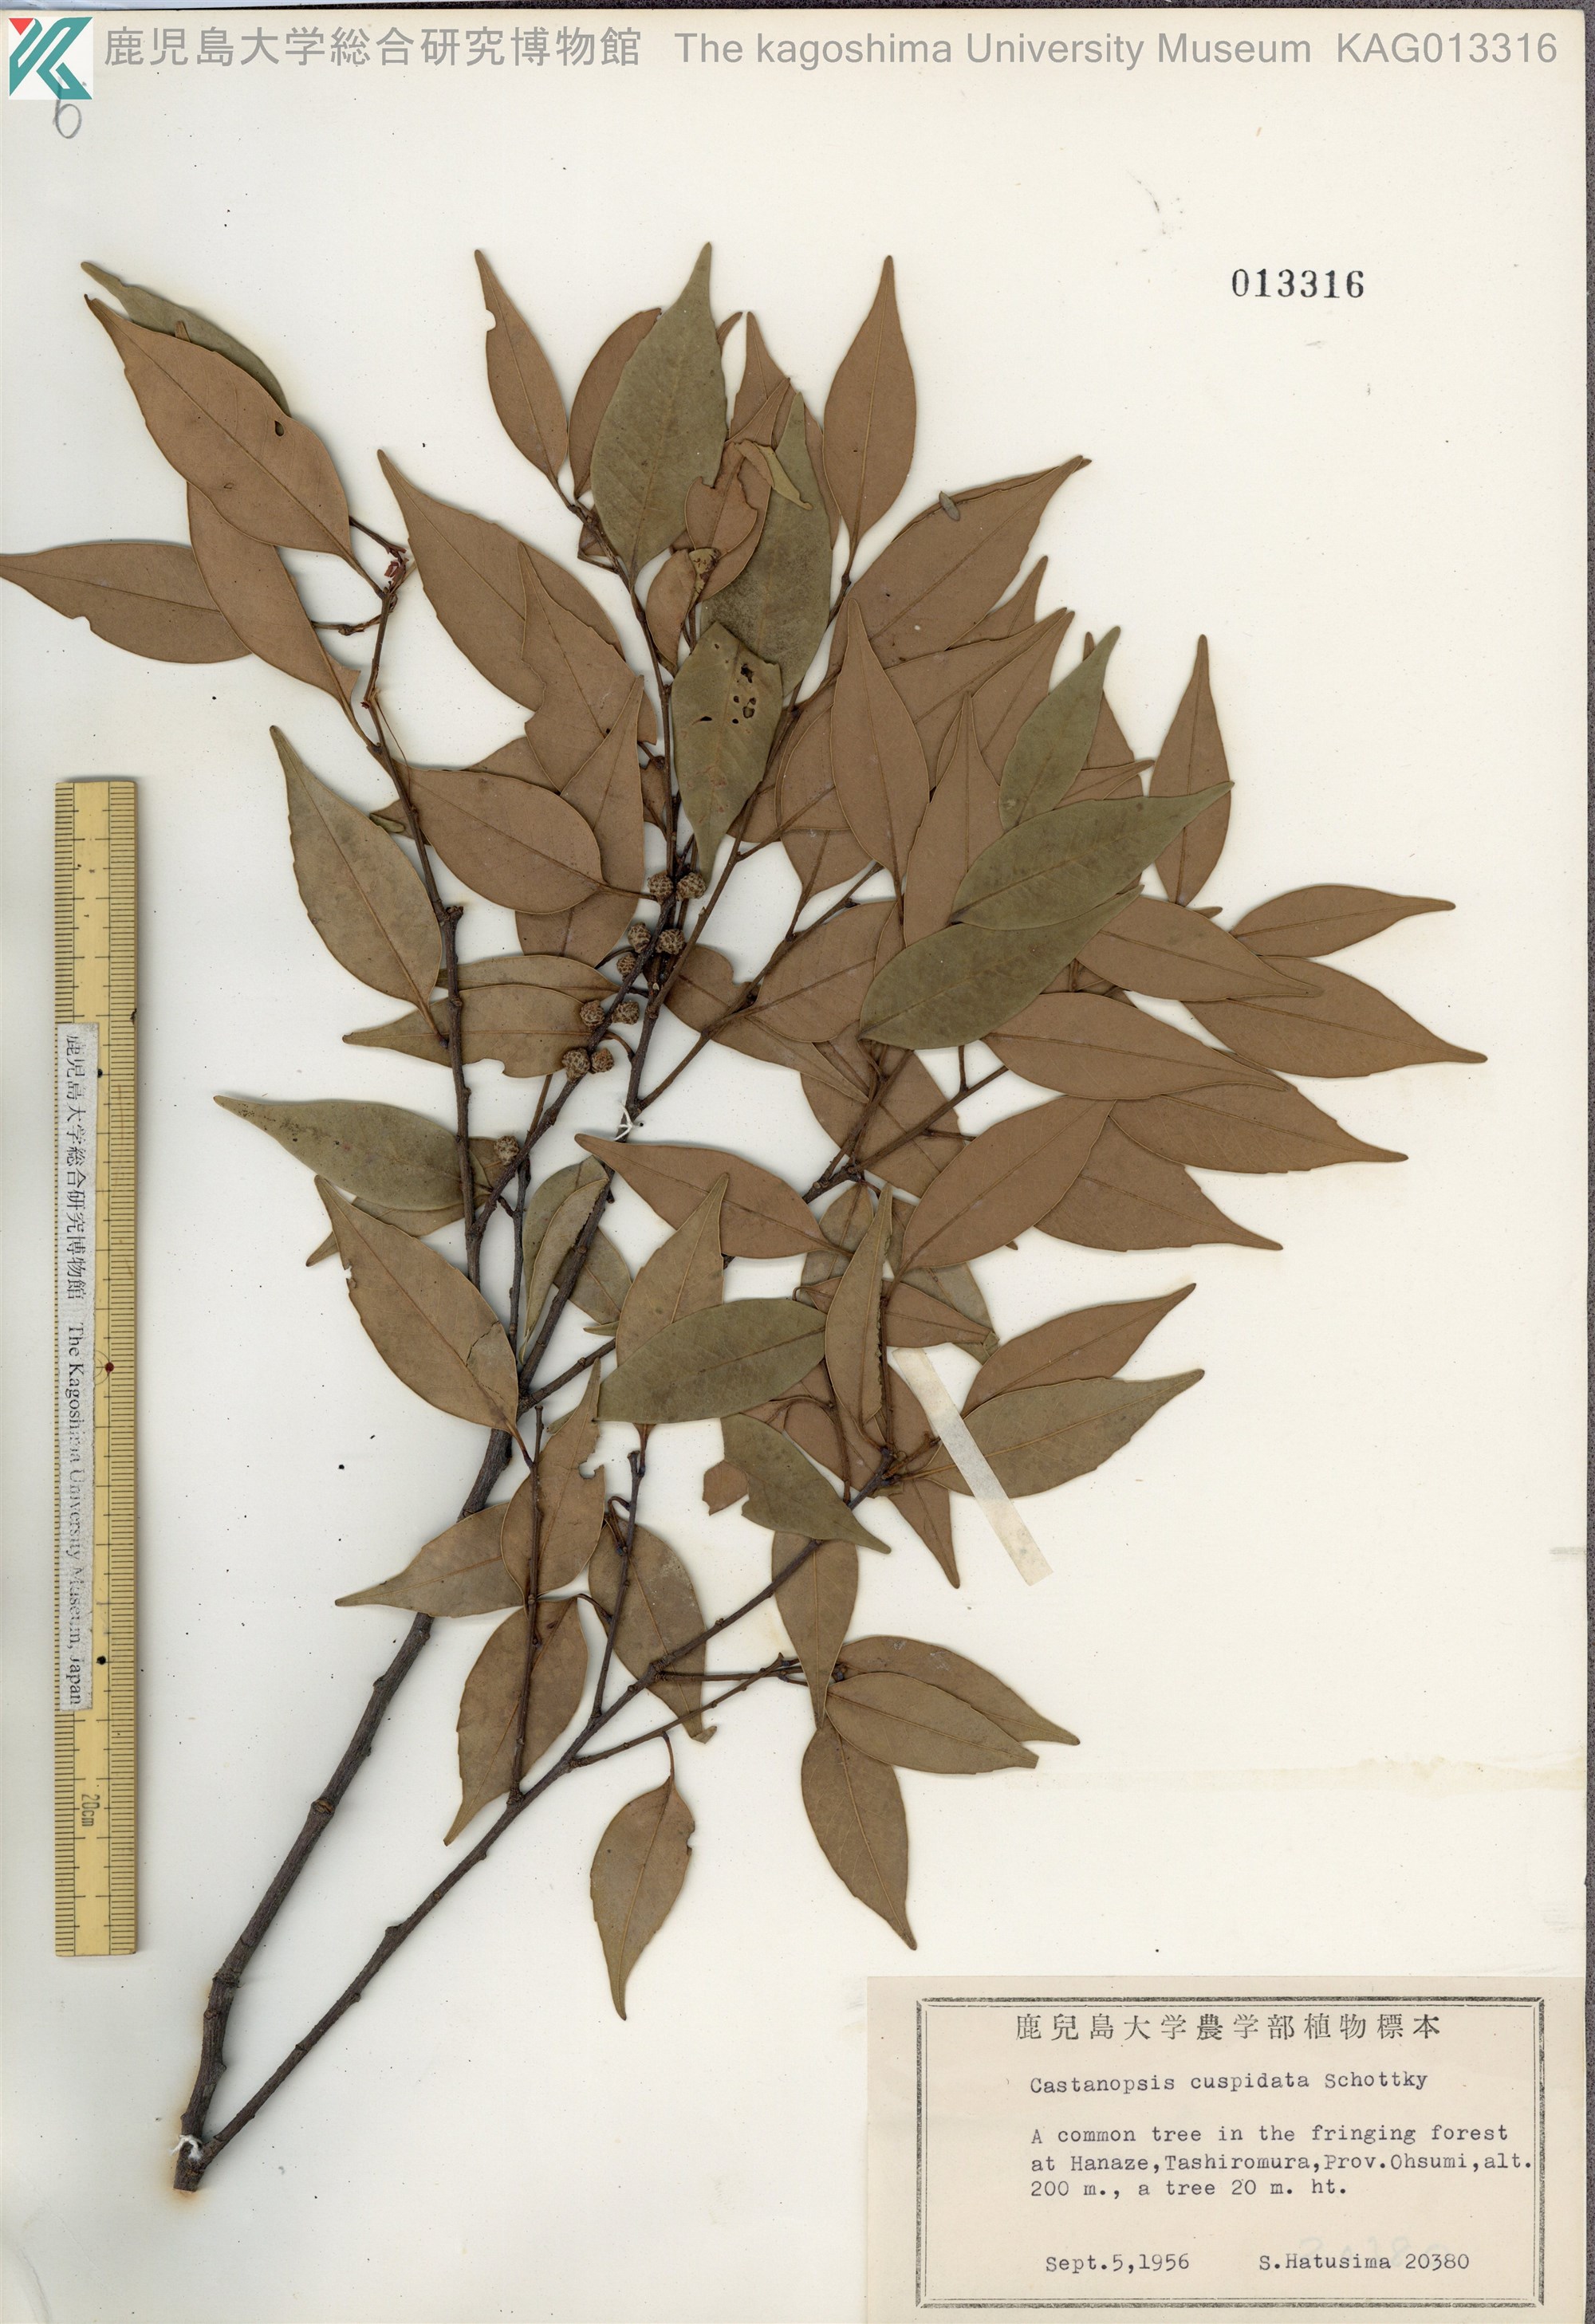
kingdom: Plantae
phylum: Tracheophyta
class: Magnoliopsida
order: Fagales
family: Fagaceae
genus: Castanopsis
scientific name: Castanopsis cuspidata
